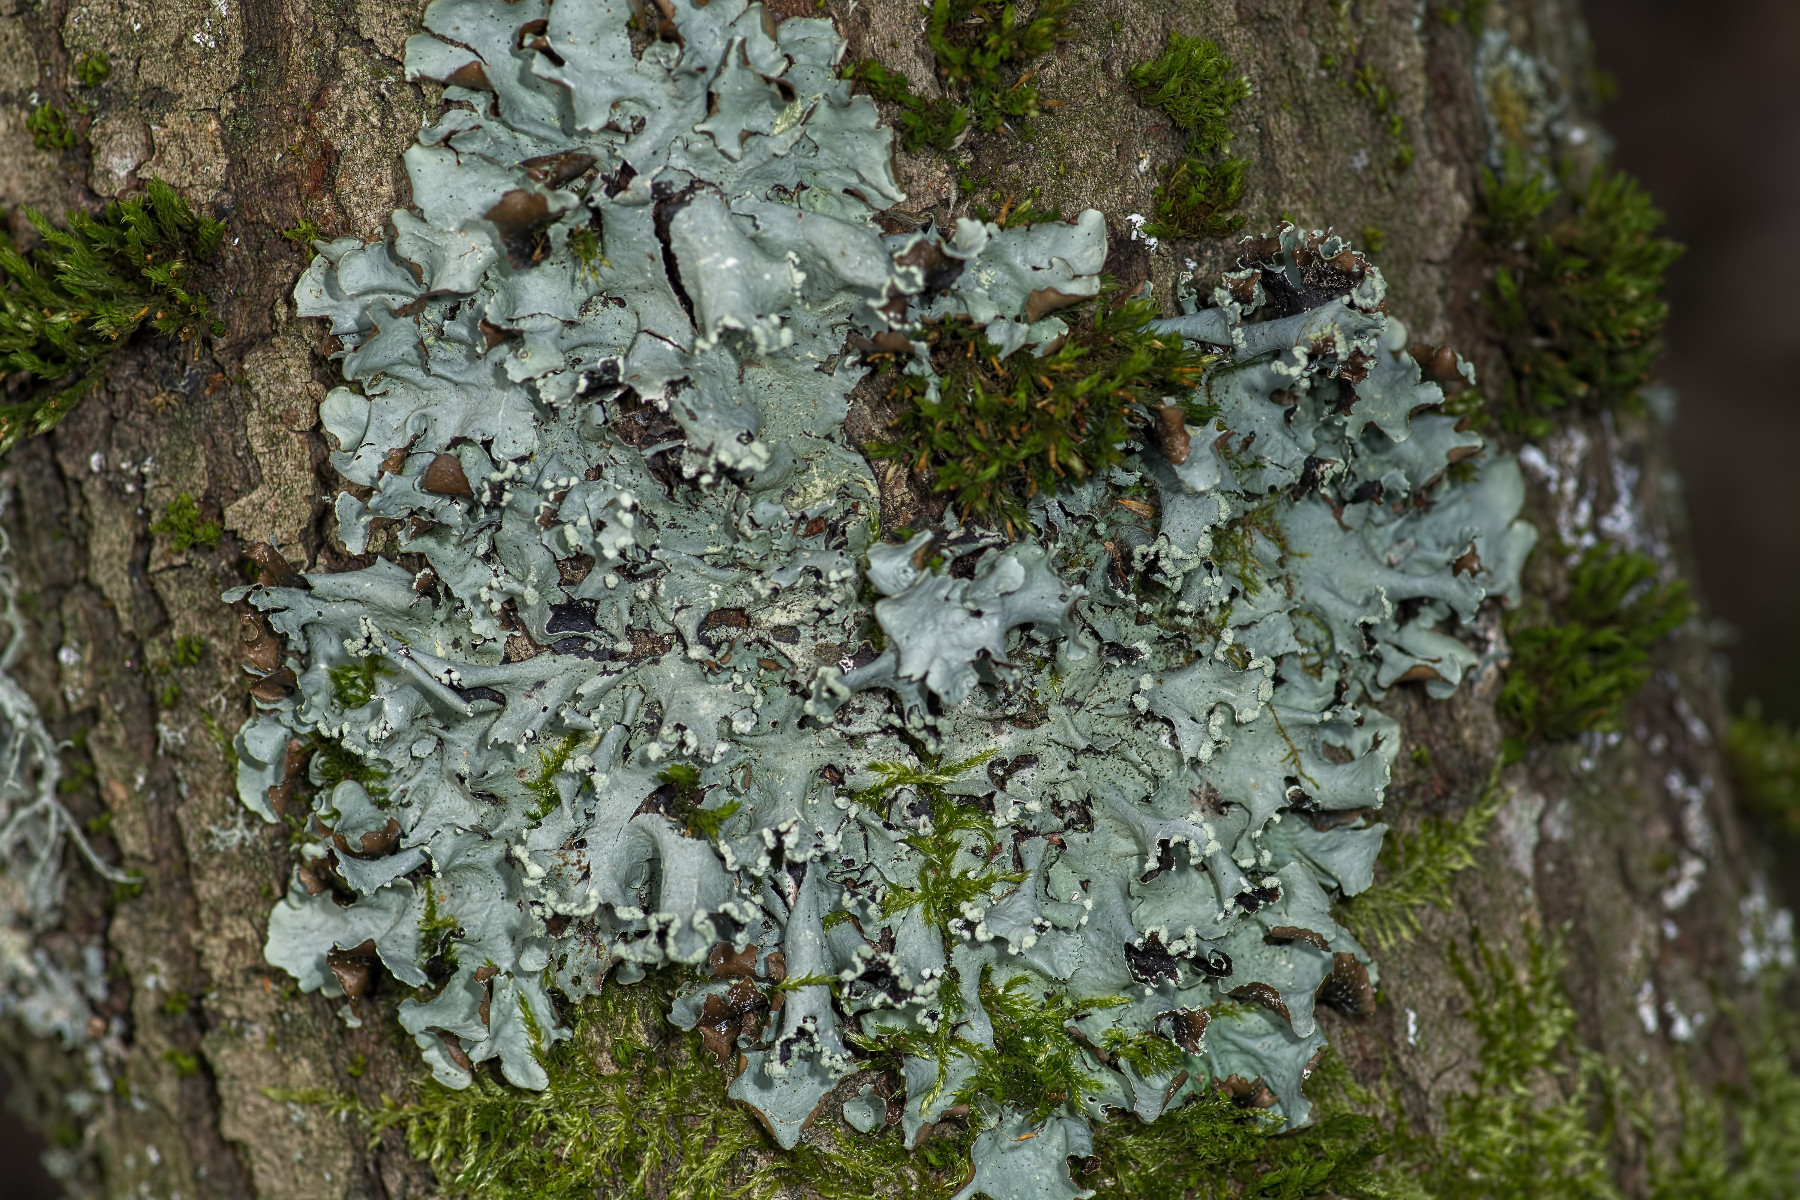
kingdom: Fungi
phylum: Ascomycota
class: Lecanoromycetes
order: Lecanorales
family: Parmeliaceae
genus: Parmotrema
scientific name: Parmotrema perlatum
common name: trådet skållav
